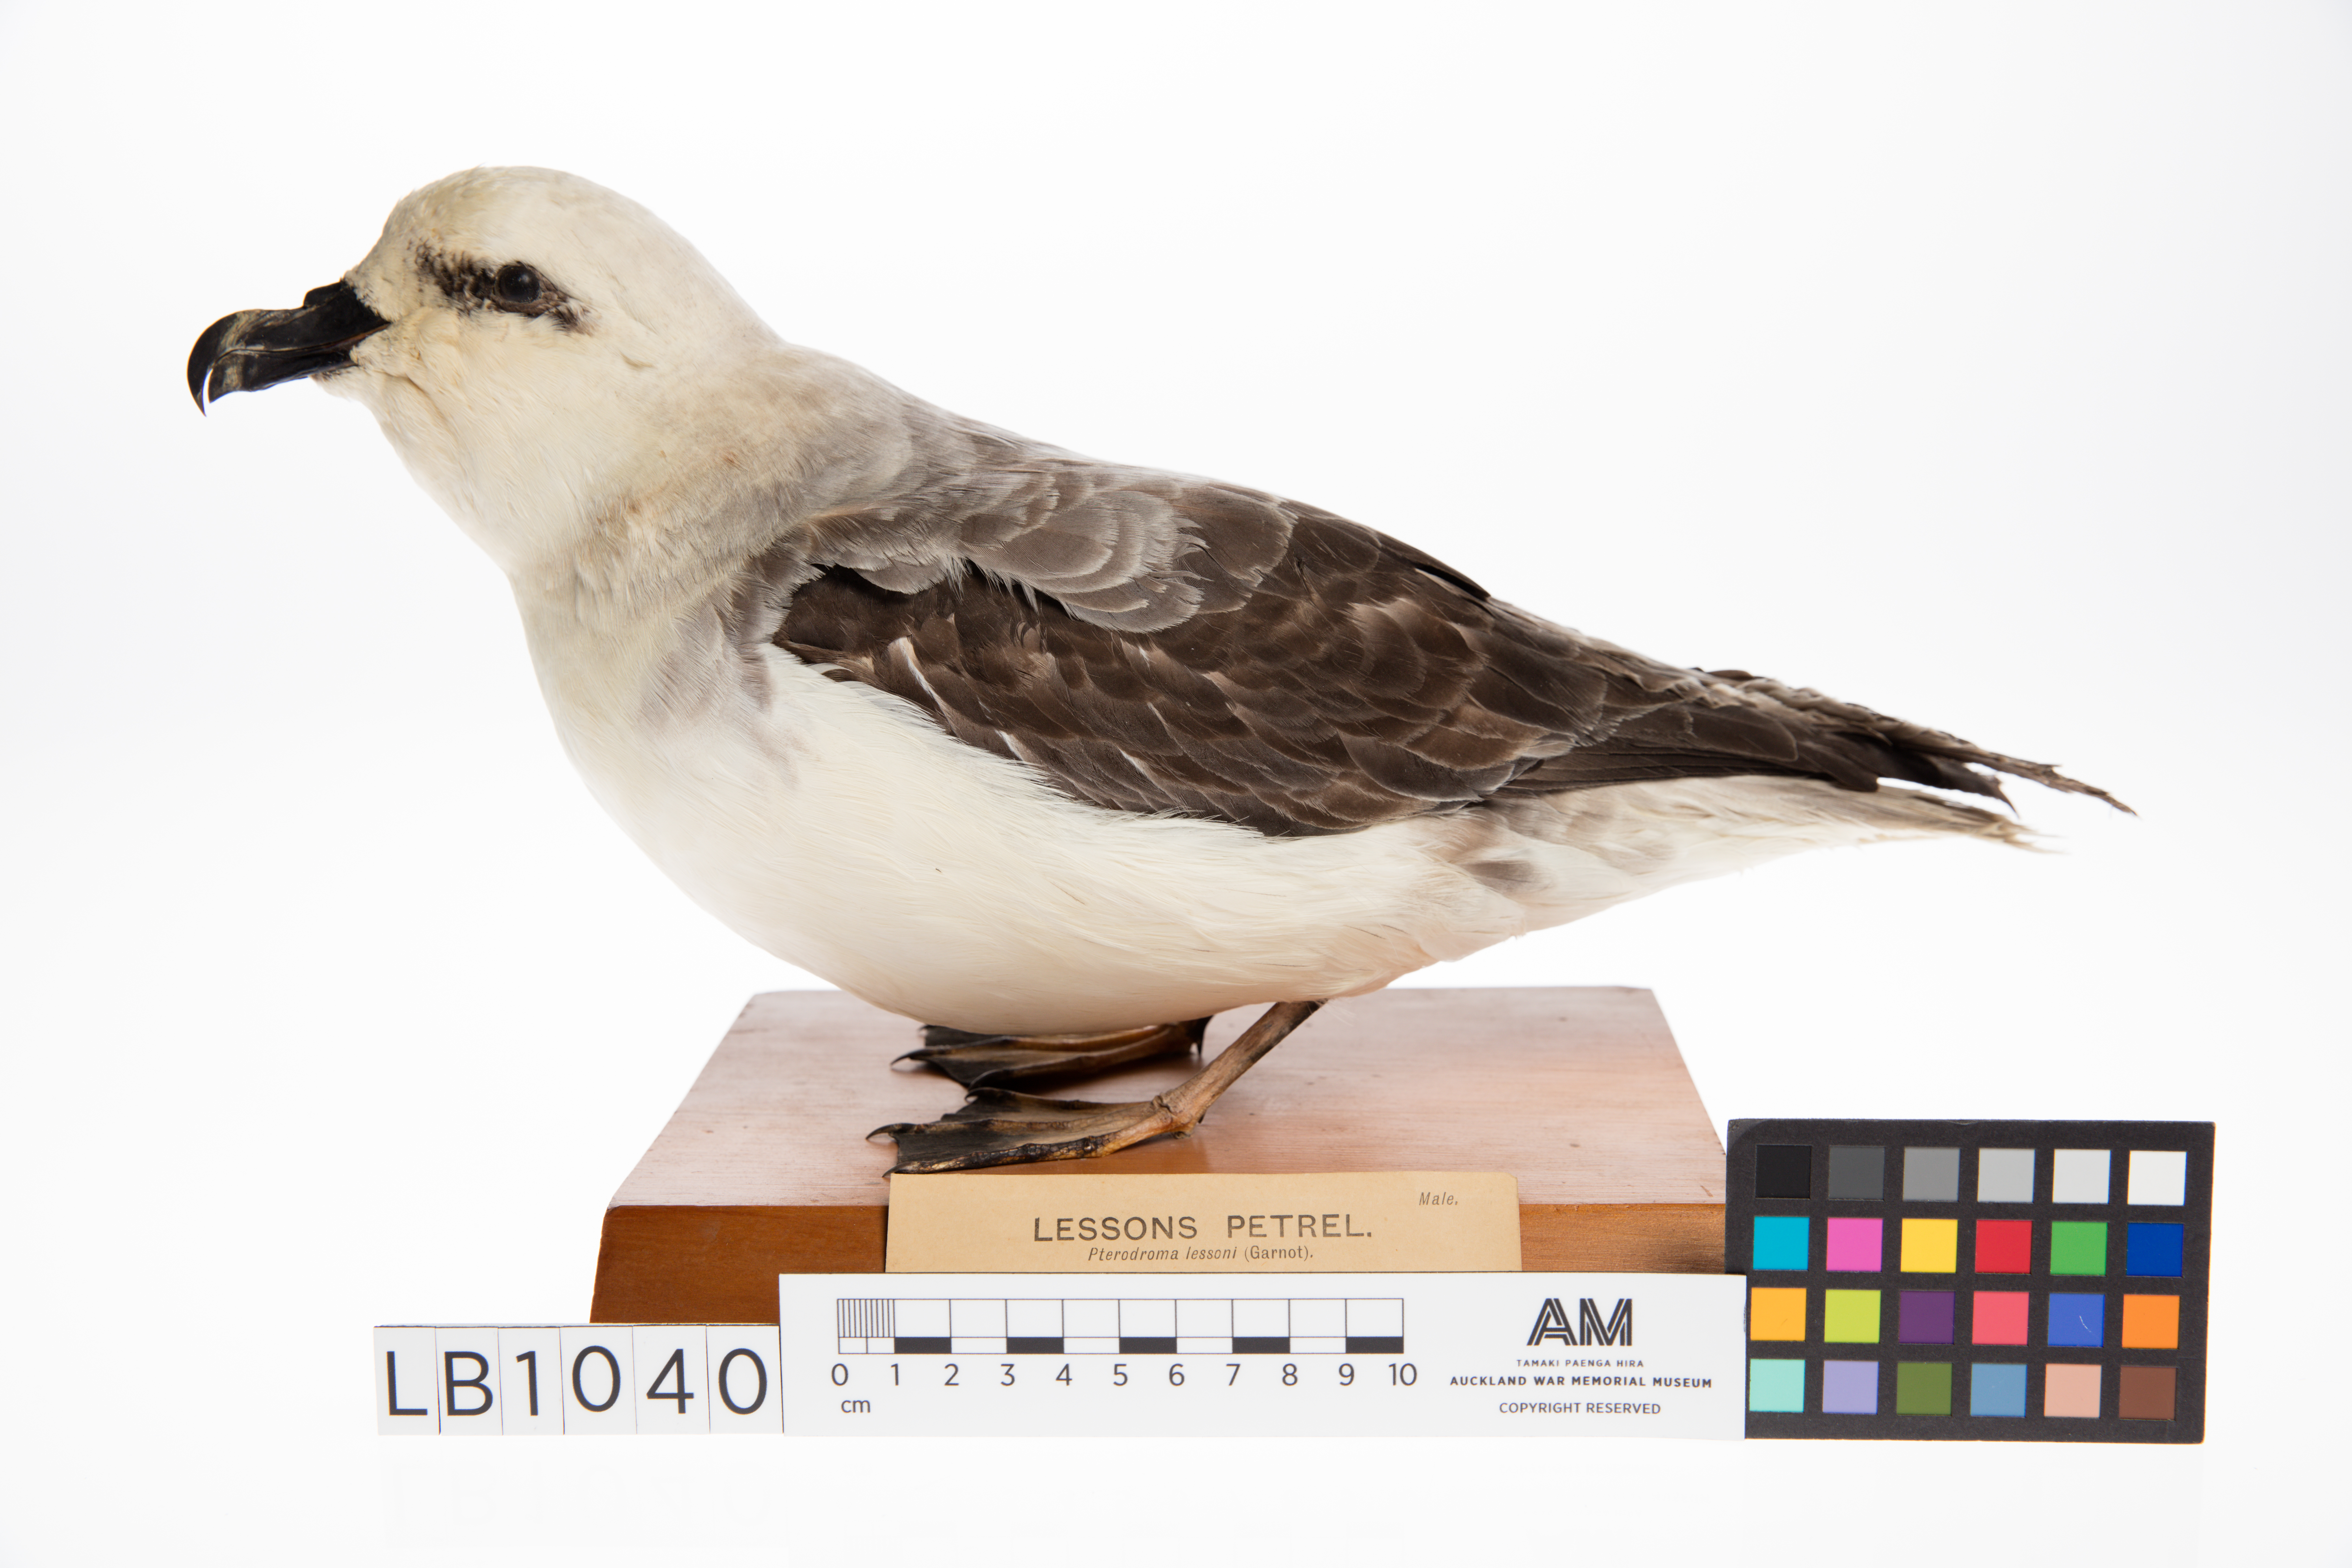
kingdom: Animalia
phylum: Chordata
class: Aves
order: Procellariiformes
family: Procellariidae
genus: Pterodroma
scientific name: Pterodroma lessonii
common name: White-headed petrel
